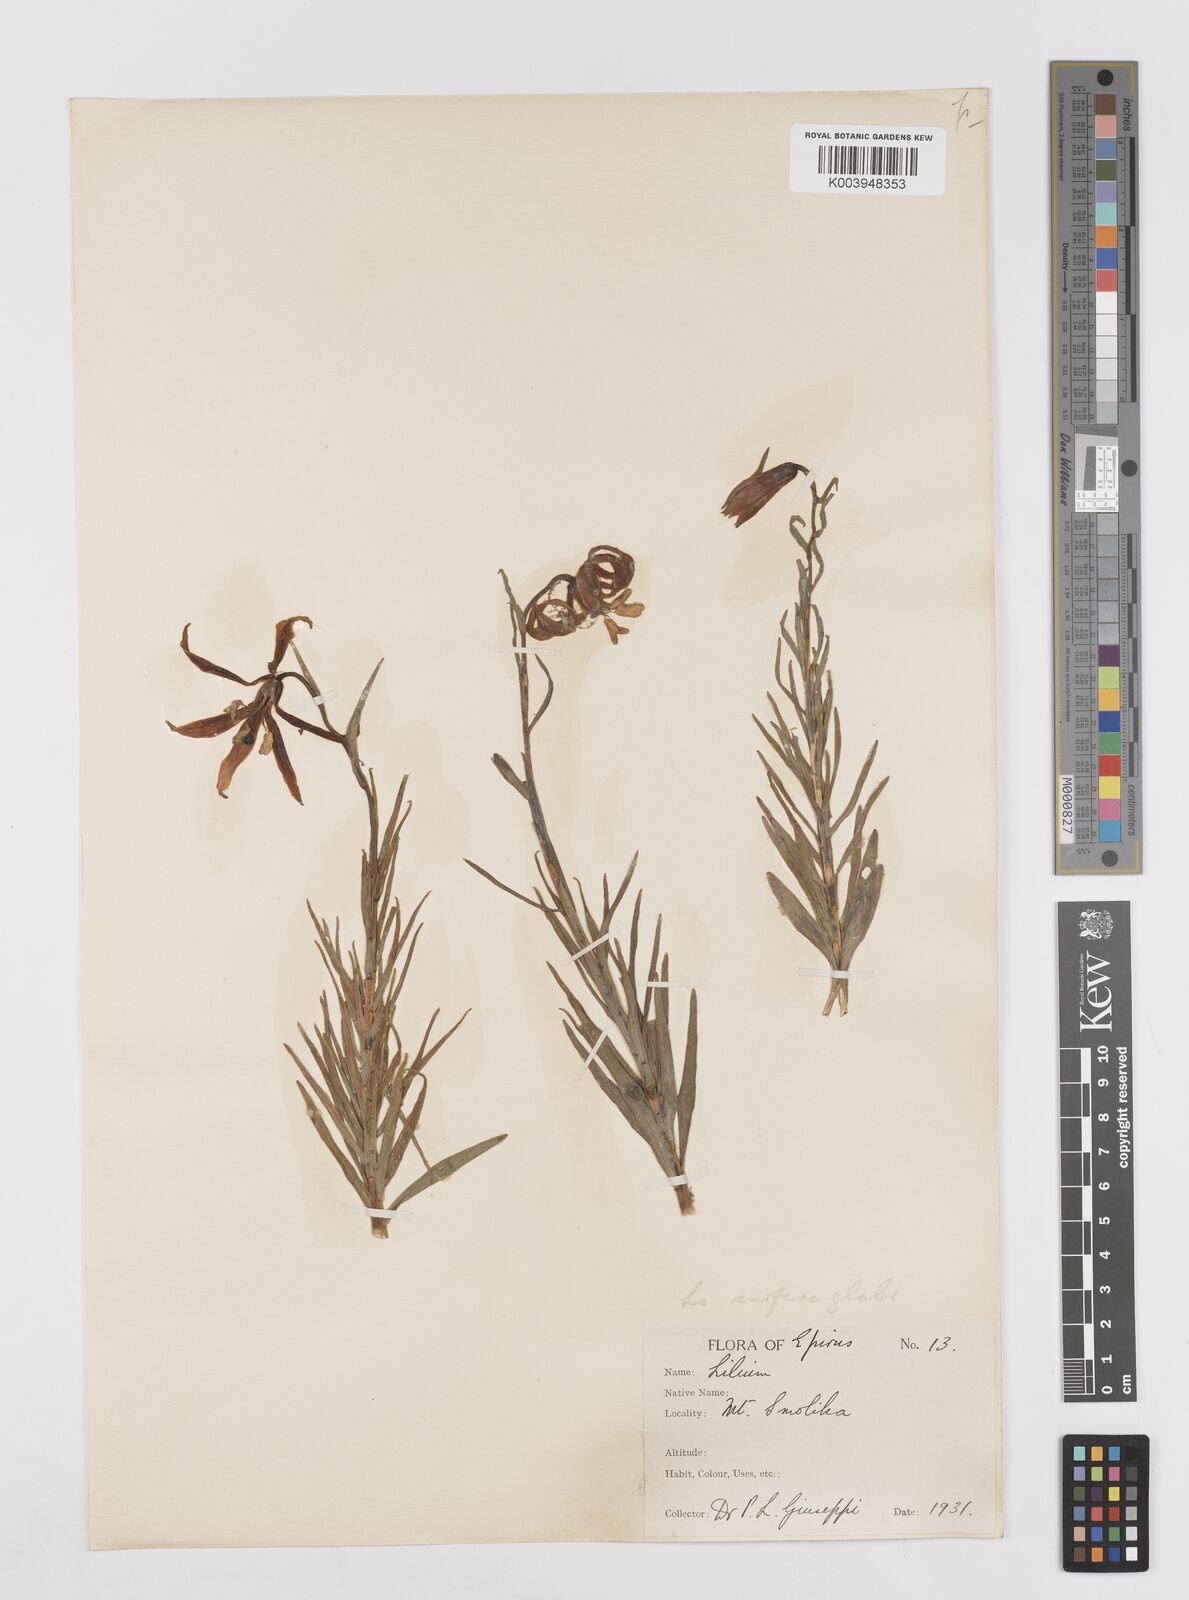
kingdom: Plantae
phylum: Tracheophyta
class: Liliopsida
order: Liliales
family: Liliaceae
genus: Lilium
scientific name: Lilium albanicum
